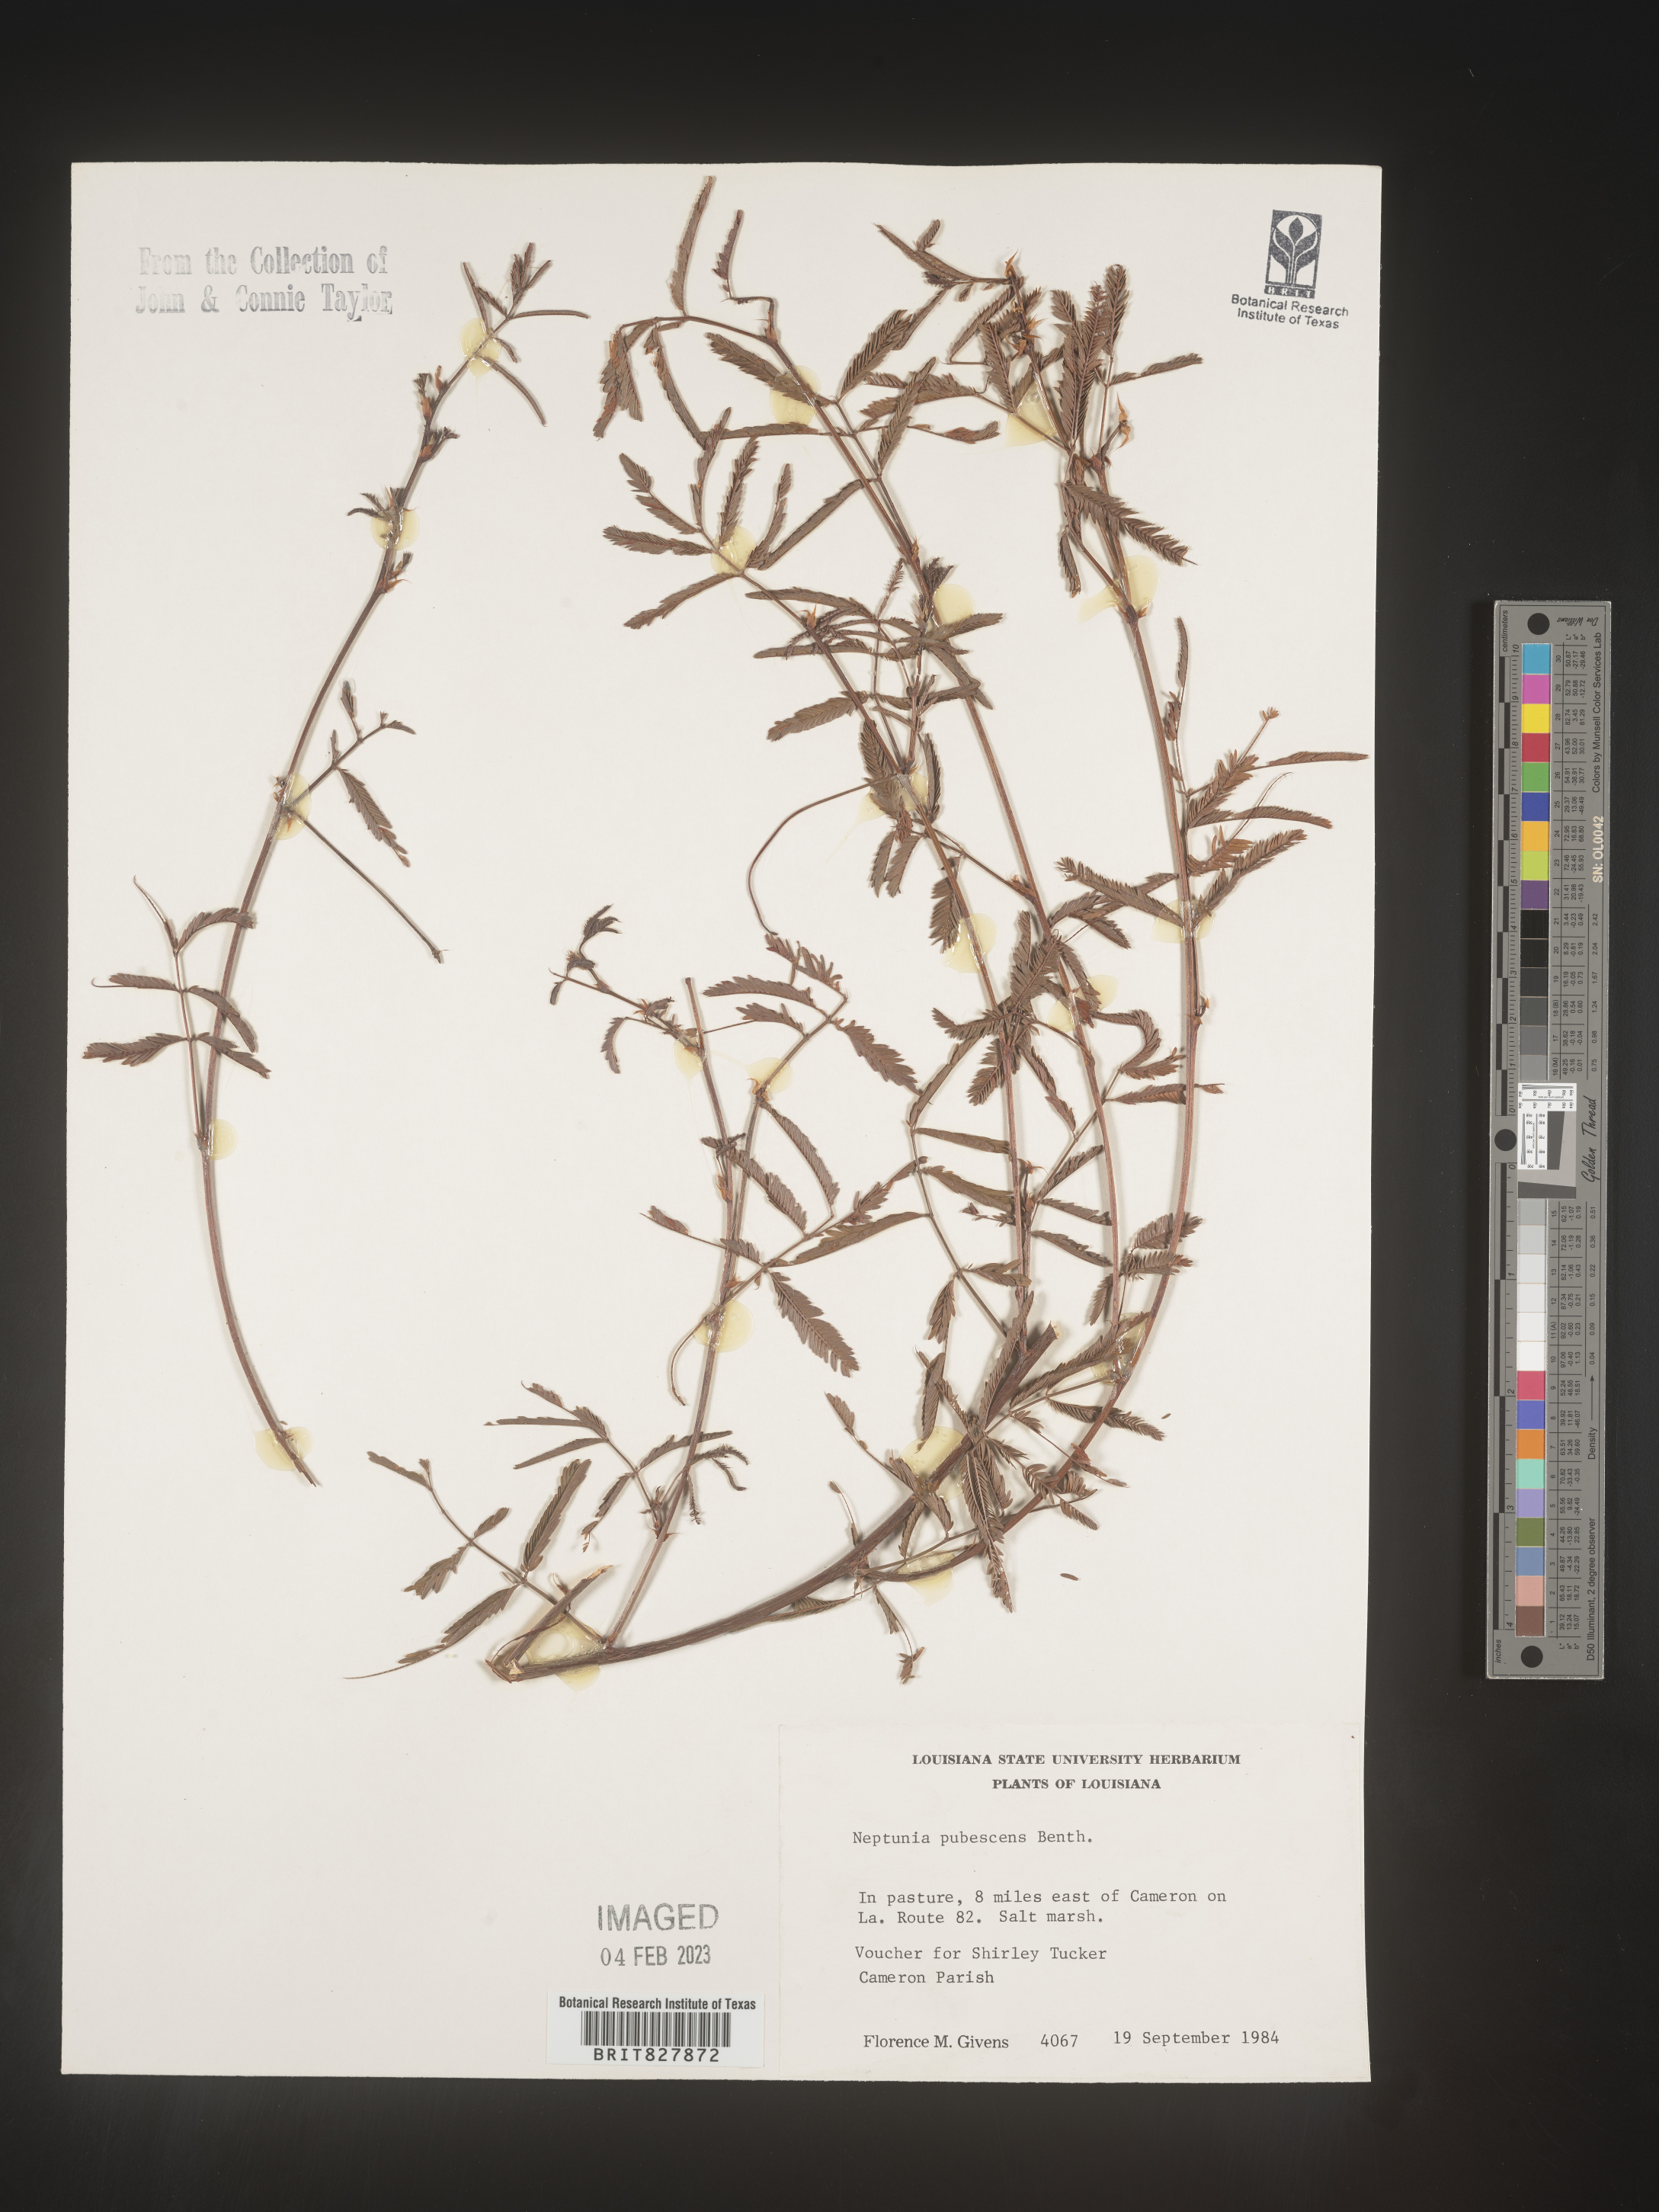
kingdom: Plantae
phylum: Tracheophyta
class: Magnoliopsida
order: Fabales
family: Fabaceae
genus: Neptunia
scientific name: Neptunia pubescens
